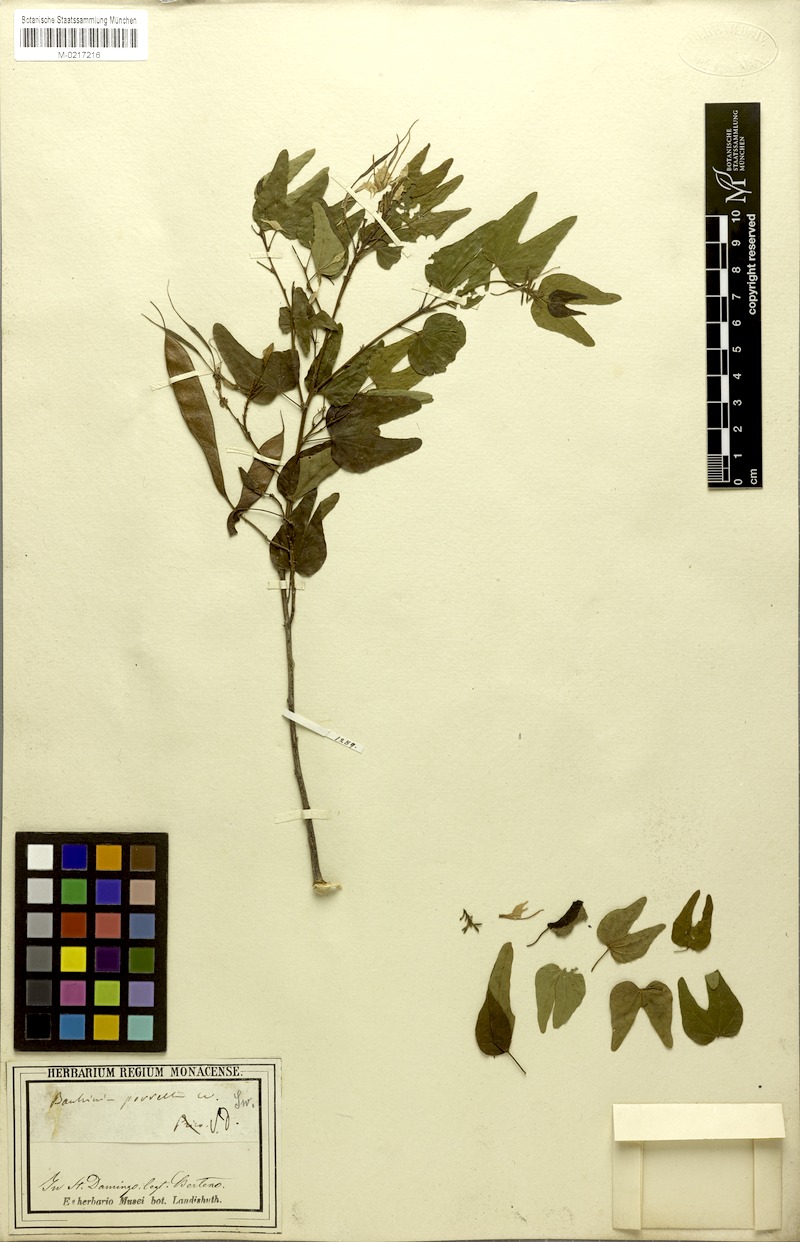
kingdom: Plantae
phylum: Tracheophyta
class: Magnoliopsida
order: Fabales
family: Fabaceae
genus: Bauhinia
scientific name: Bauhinia divaricata
